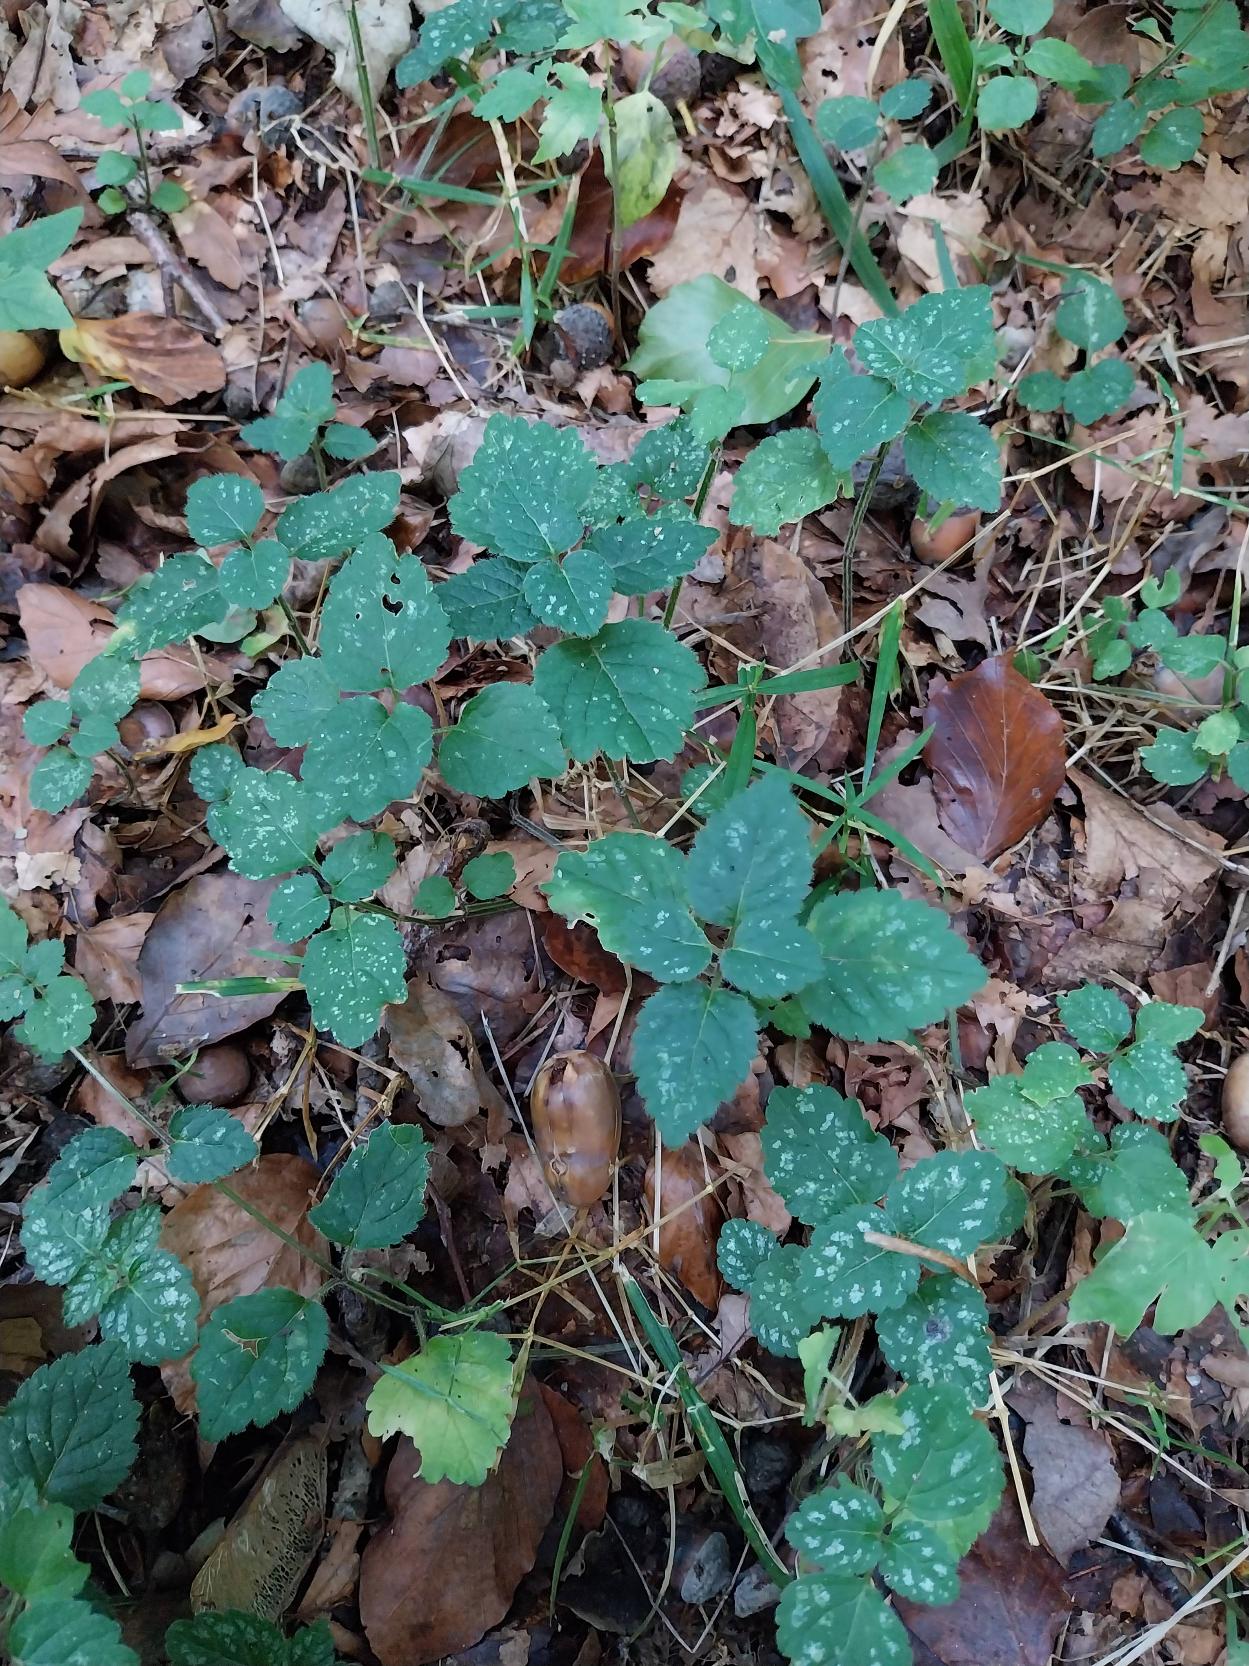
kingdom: Plantae
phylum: Tracheophyta
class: Magnoliopsida
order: Lamiales
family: Lamiaceae
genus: Lamium
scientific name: Lamium galeobdolon
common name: Almindelig guldnælde
